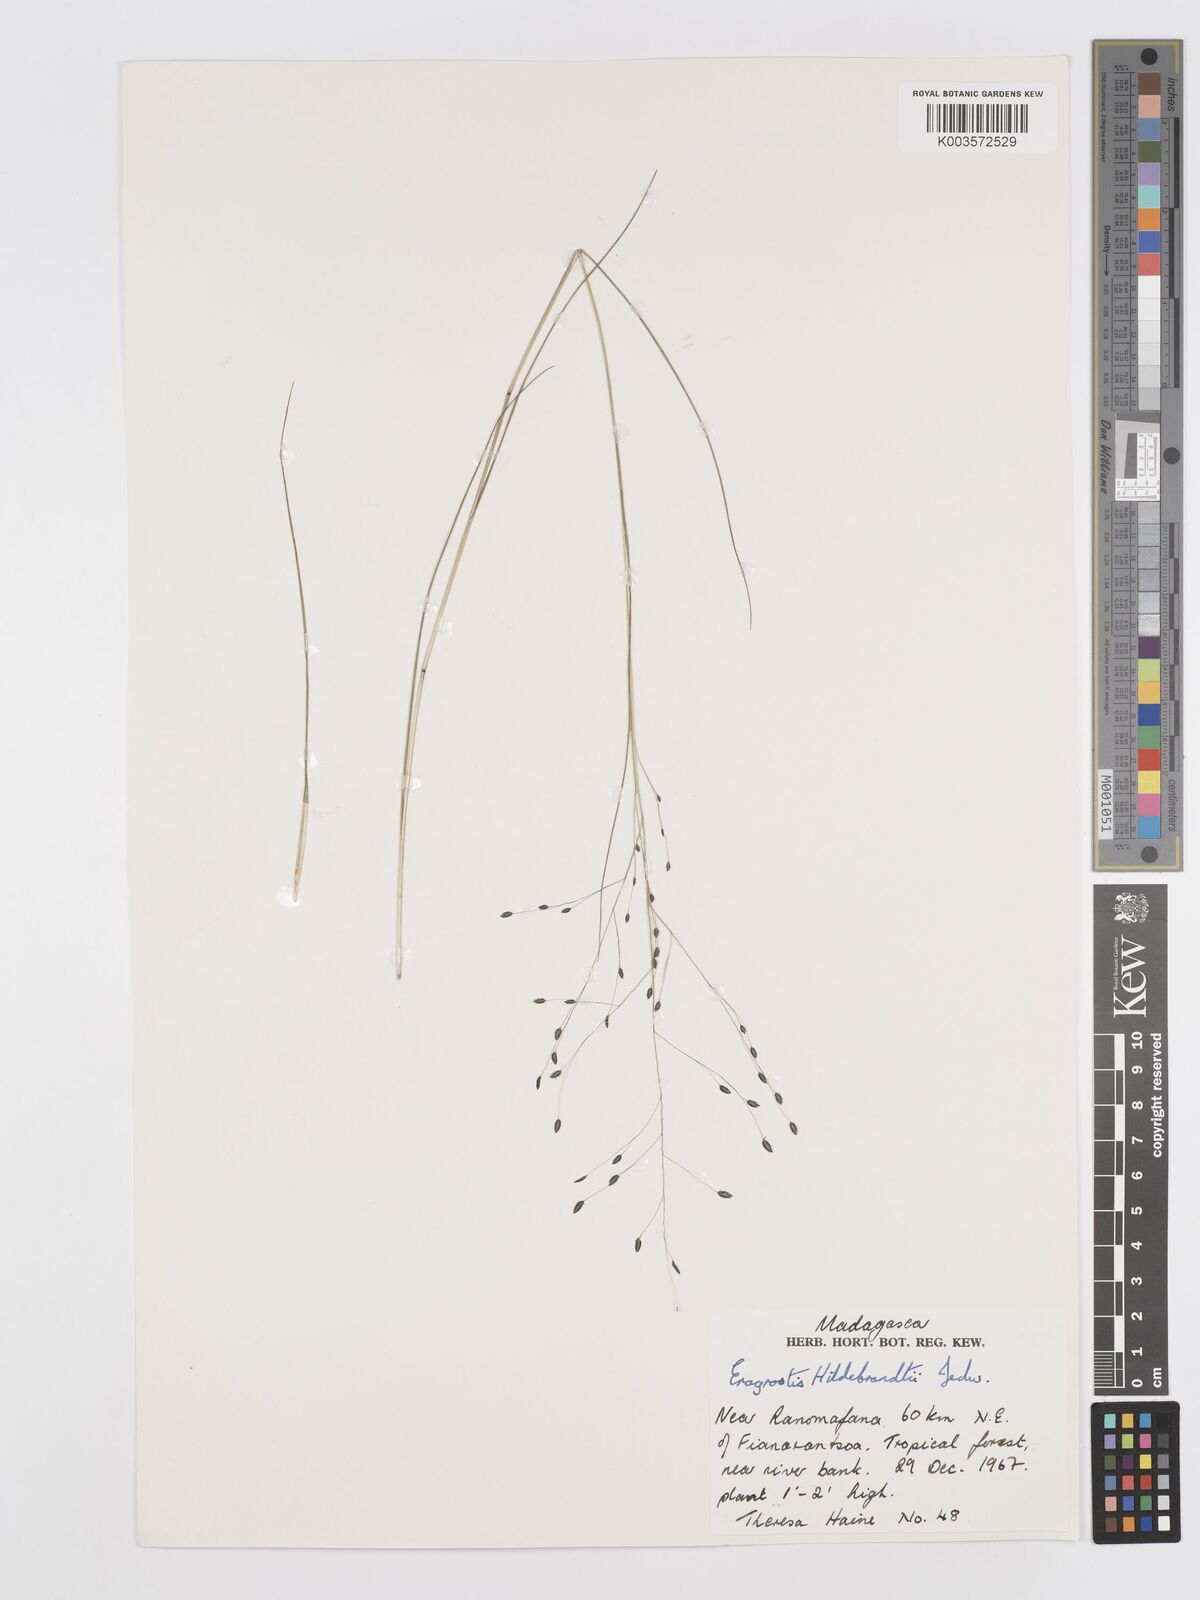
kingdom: Plantae
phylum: Tracheophyta
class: Liliopsida
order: Poales
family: Poaceae
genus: Eragrostis
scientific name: Eragrostis hildebrandtii
